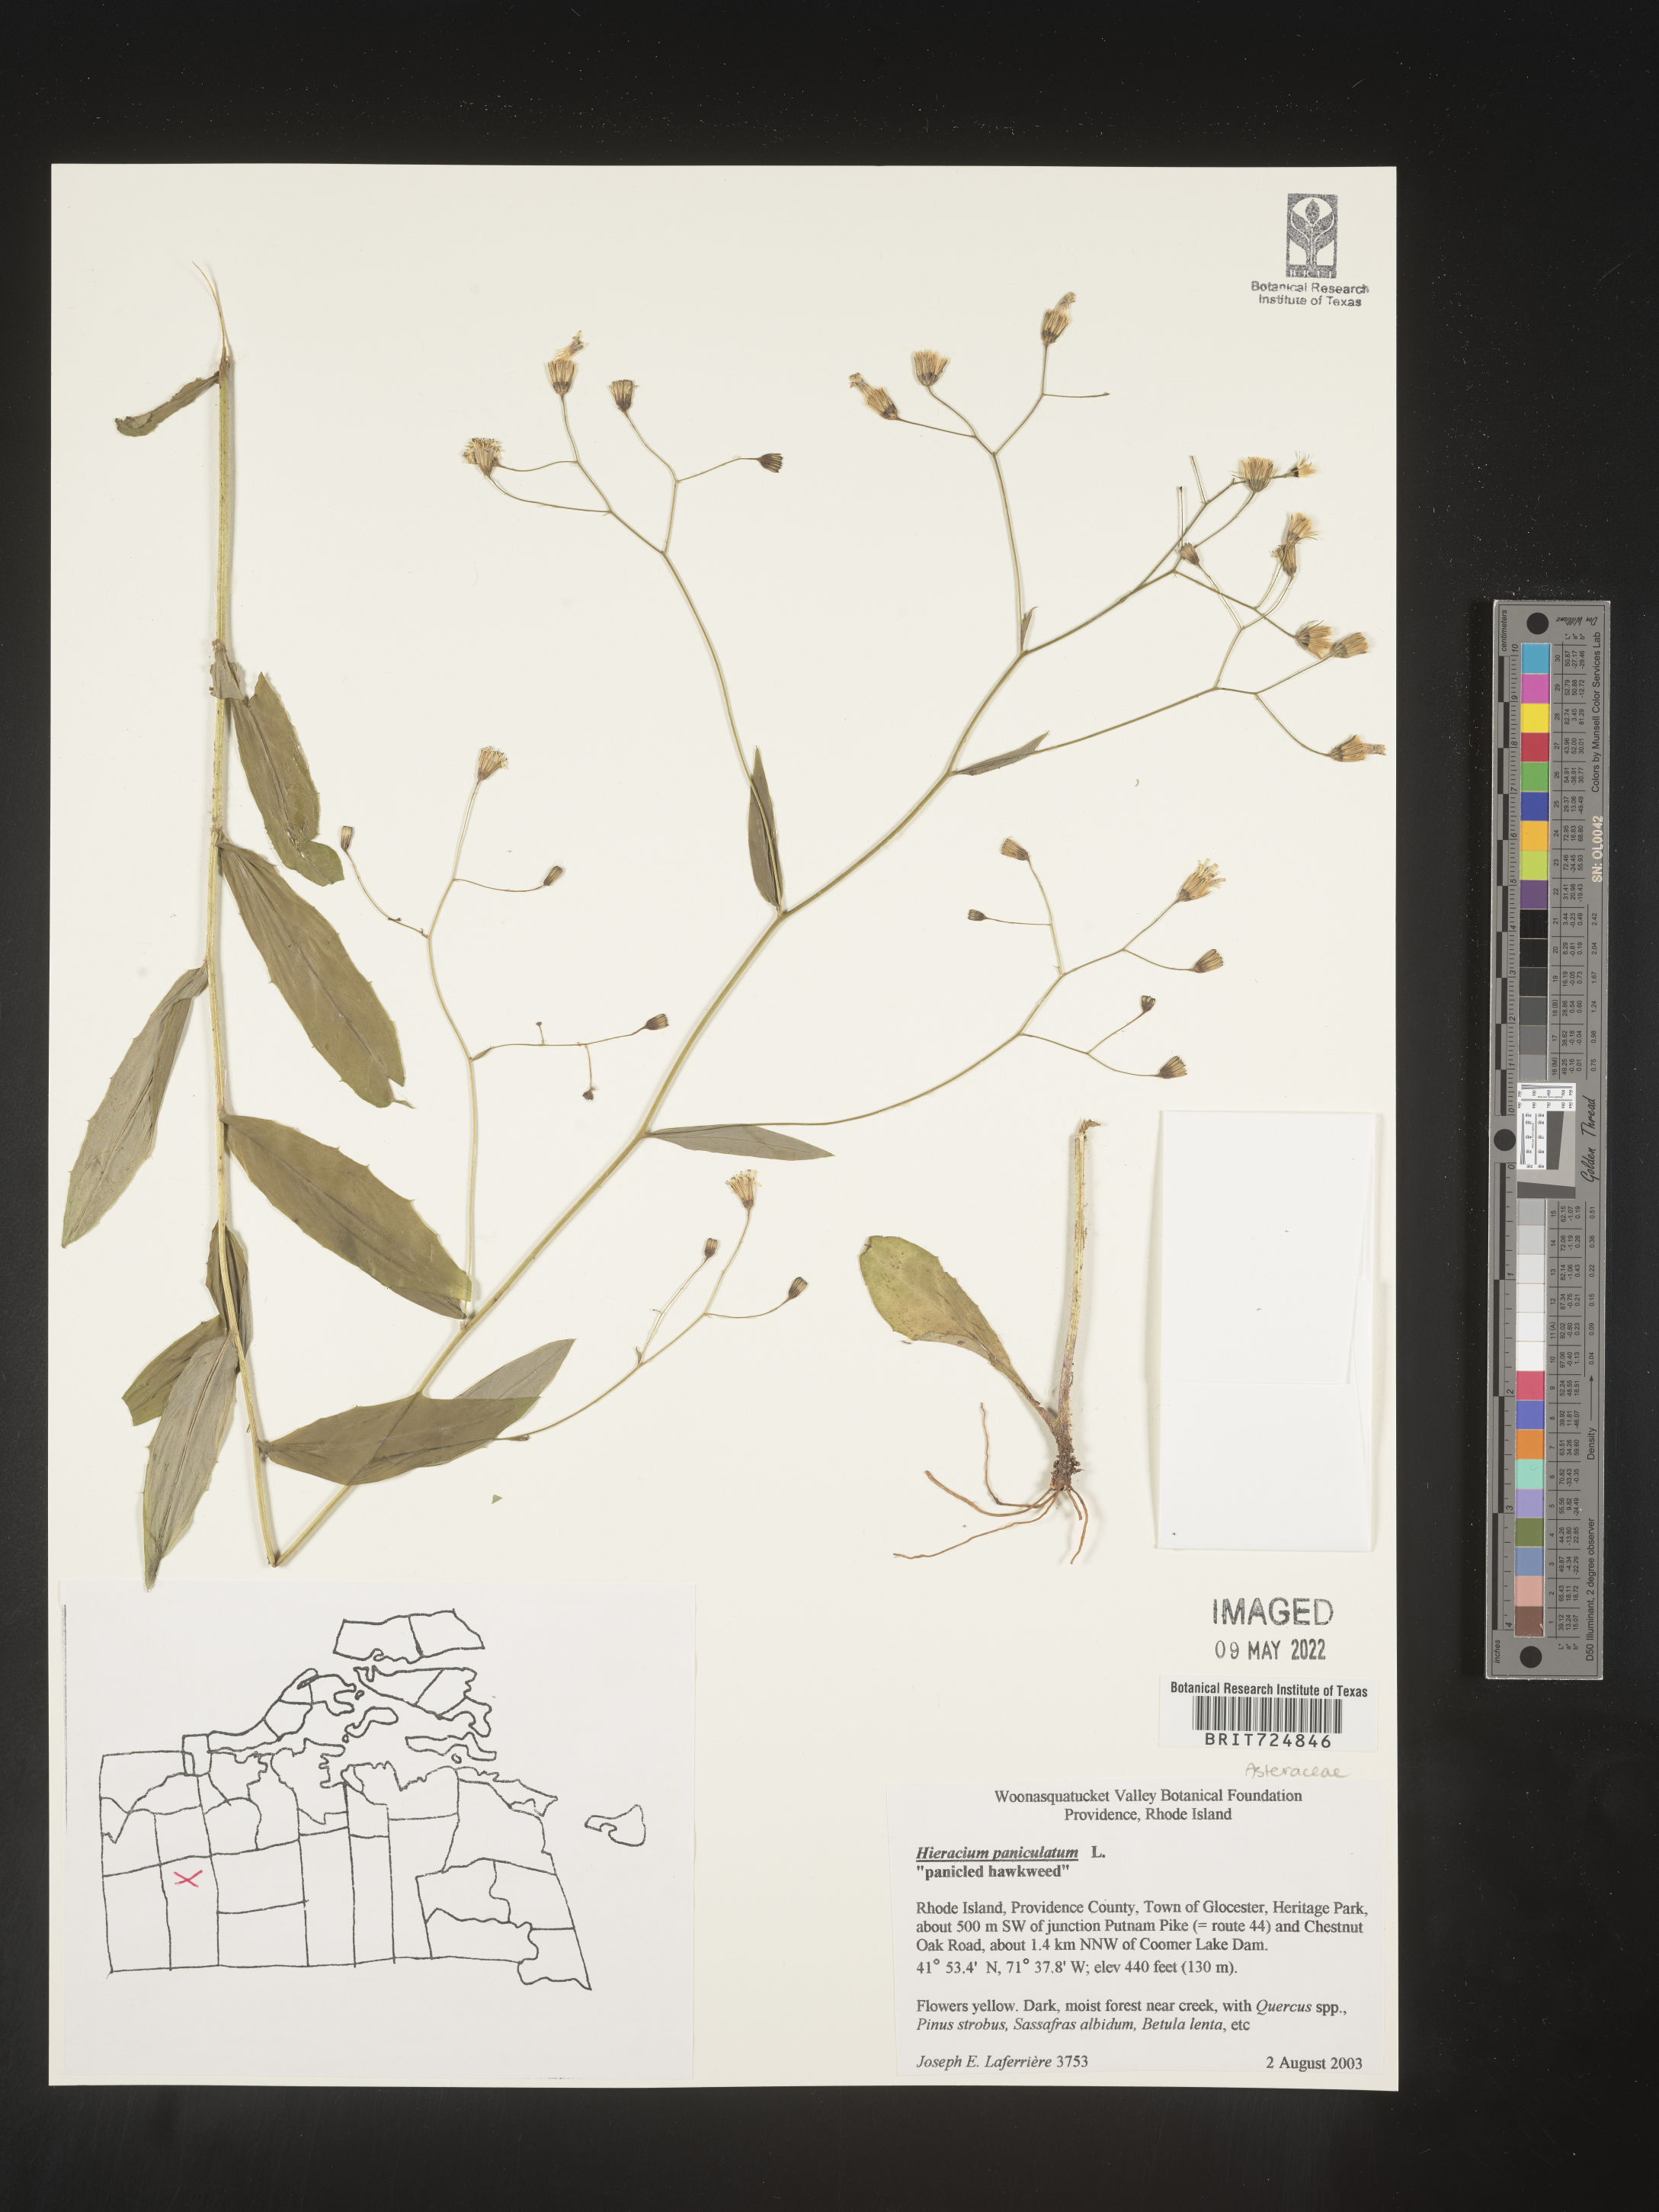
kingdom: Plantae
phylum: Tracheophyta
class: Magnoliopsida
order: Asterales
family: Asteraceae
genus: Hieracium
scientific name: Hieracium paniculatum
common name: Allegheny hawkweed
